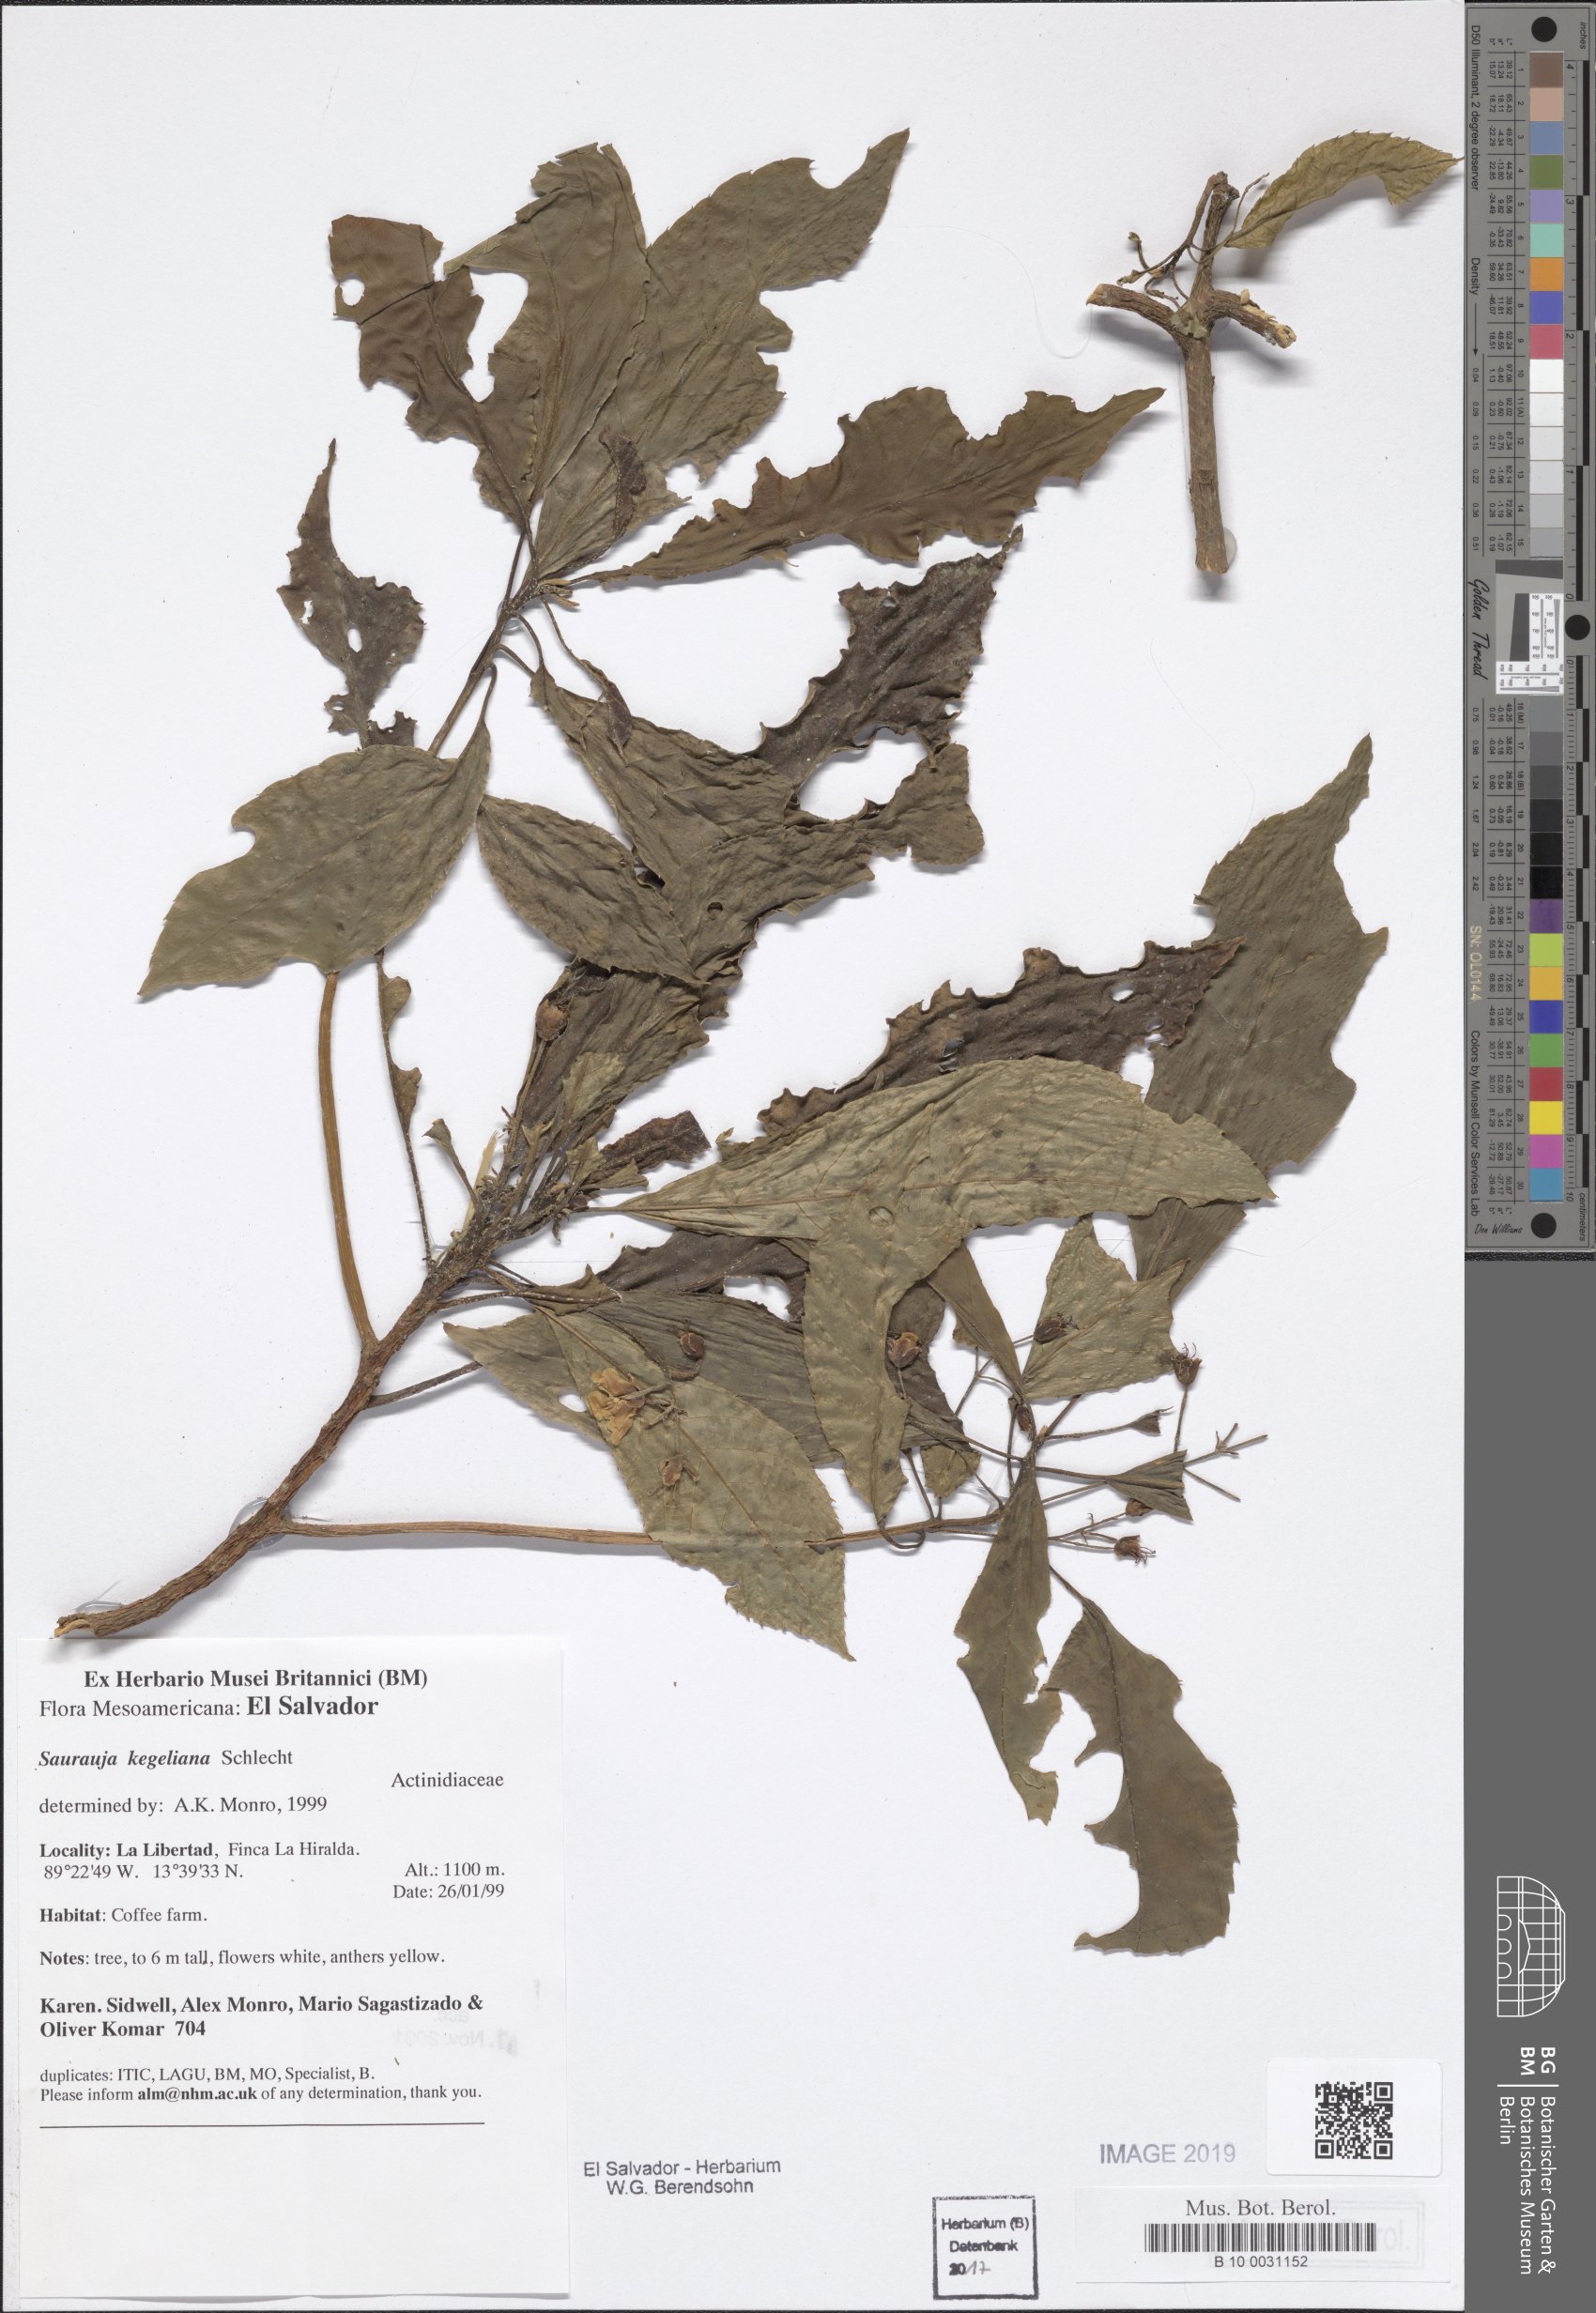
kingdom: Plantae
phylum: Tracheophyta
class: Magnoliopsida
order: Ericales
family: Actinidiaceae
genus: Saurauia
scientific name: Saurauia kegeliana
